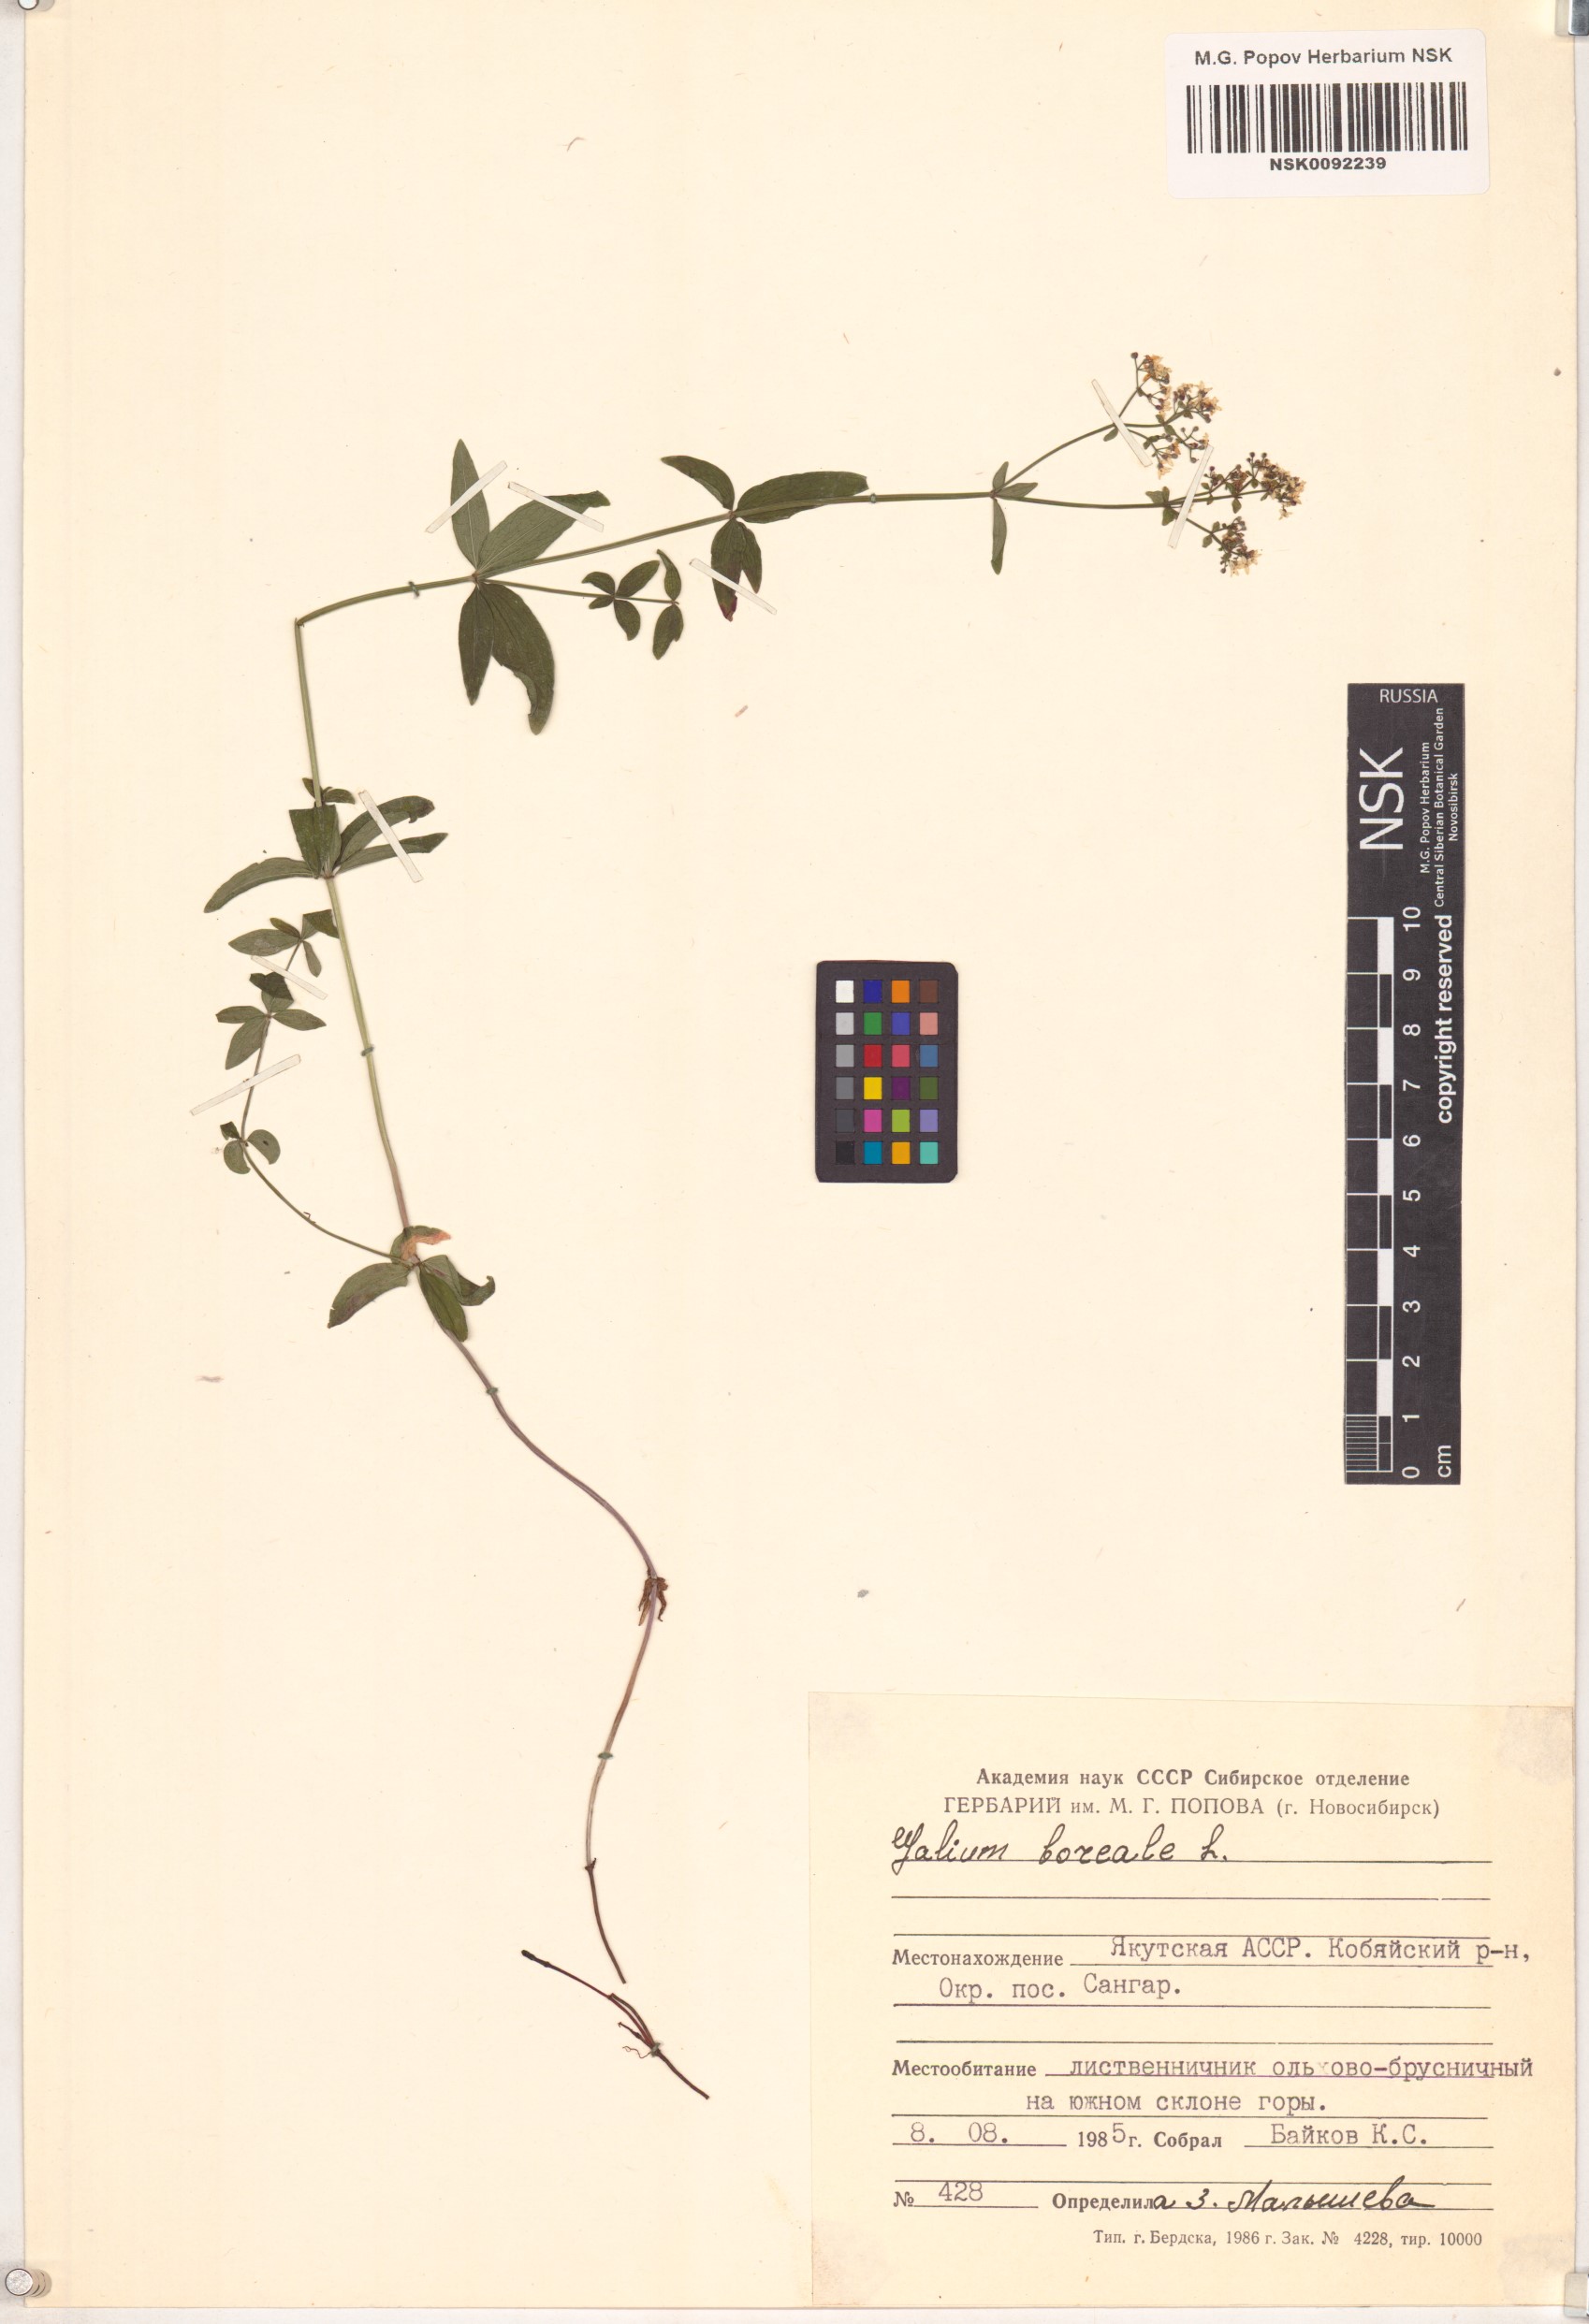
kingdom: Plantae
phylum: Tracheophyta
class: Magnoliopsida
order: Gentianales
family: Rubiaceae
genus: Galium
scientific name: Galium boreale
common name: Northern bedstraw
